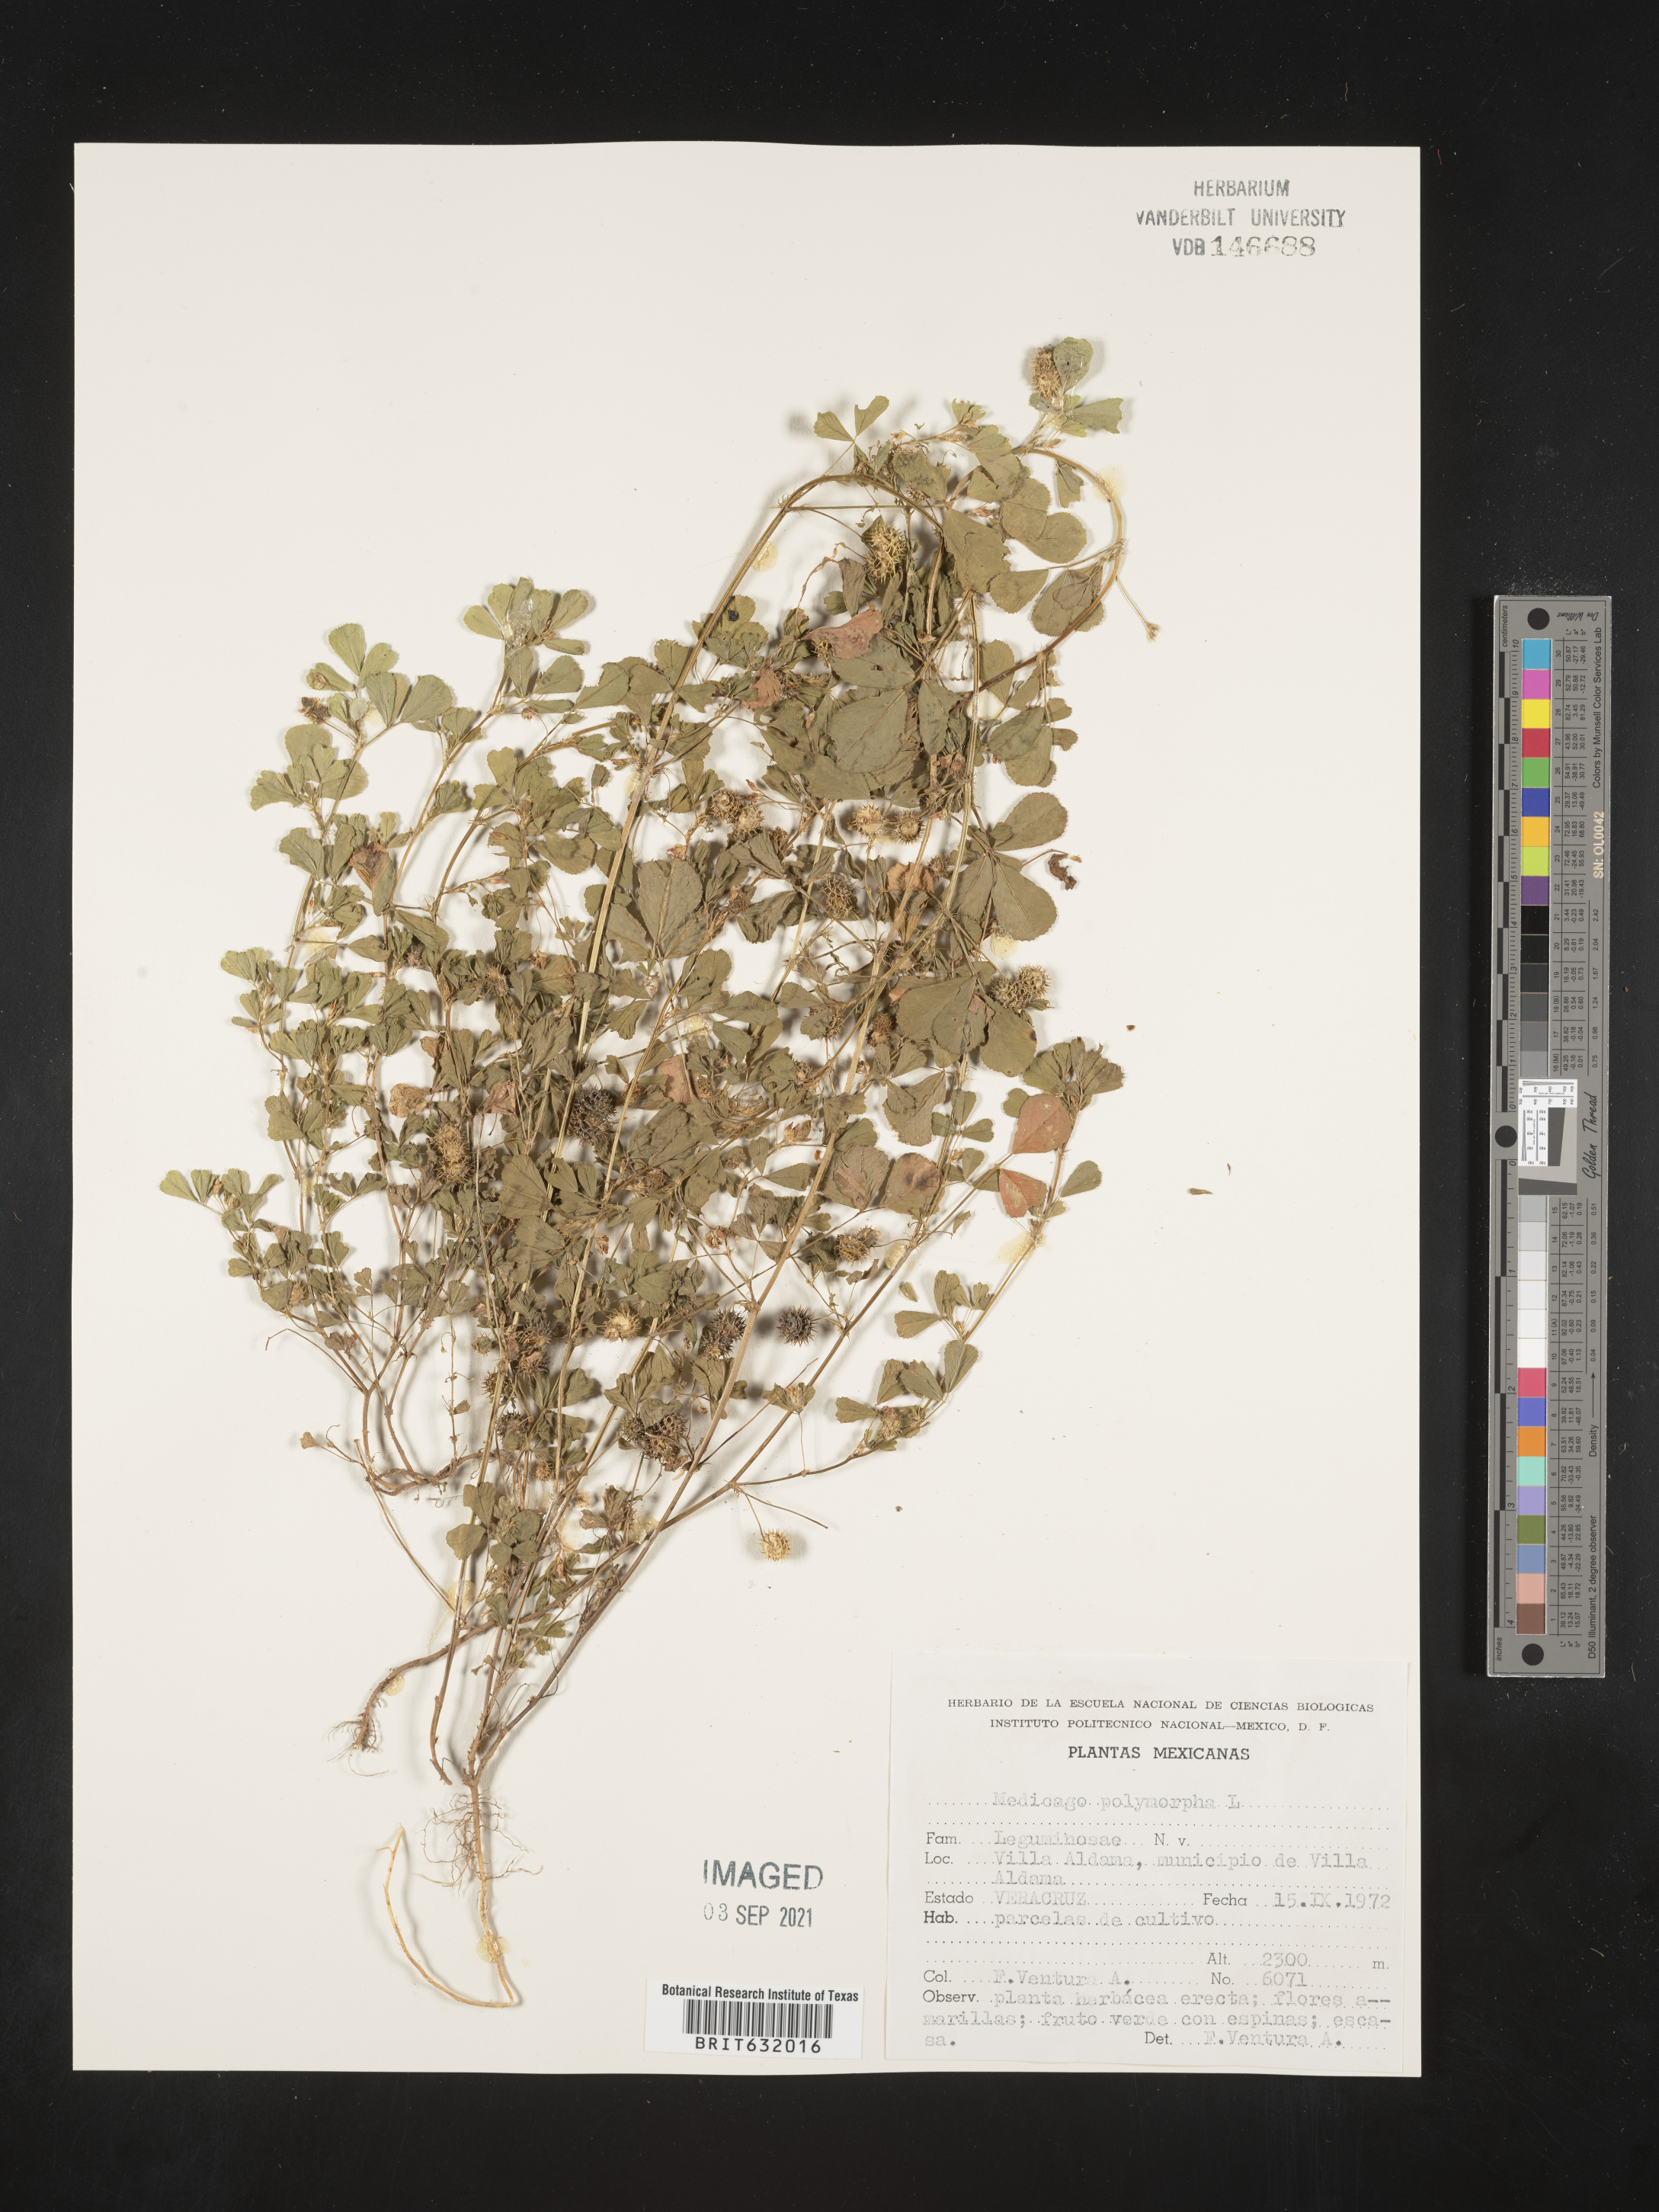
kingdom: Plantae
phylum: Tracheophyta
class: Magnoliopsida
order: Fabales
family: Fabaceae
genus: Medicago
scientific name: Medicago
